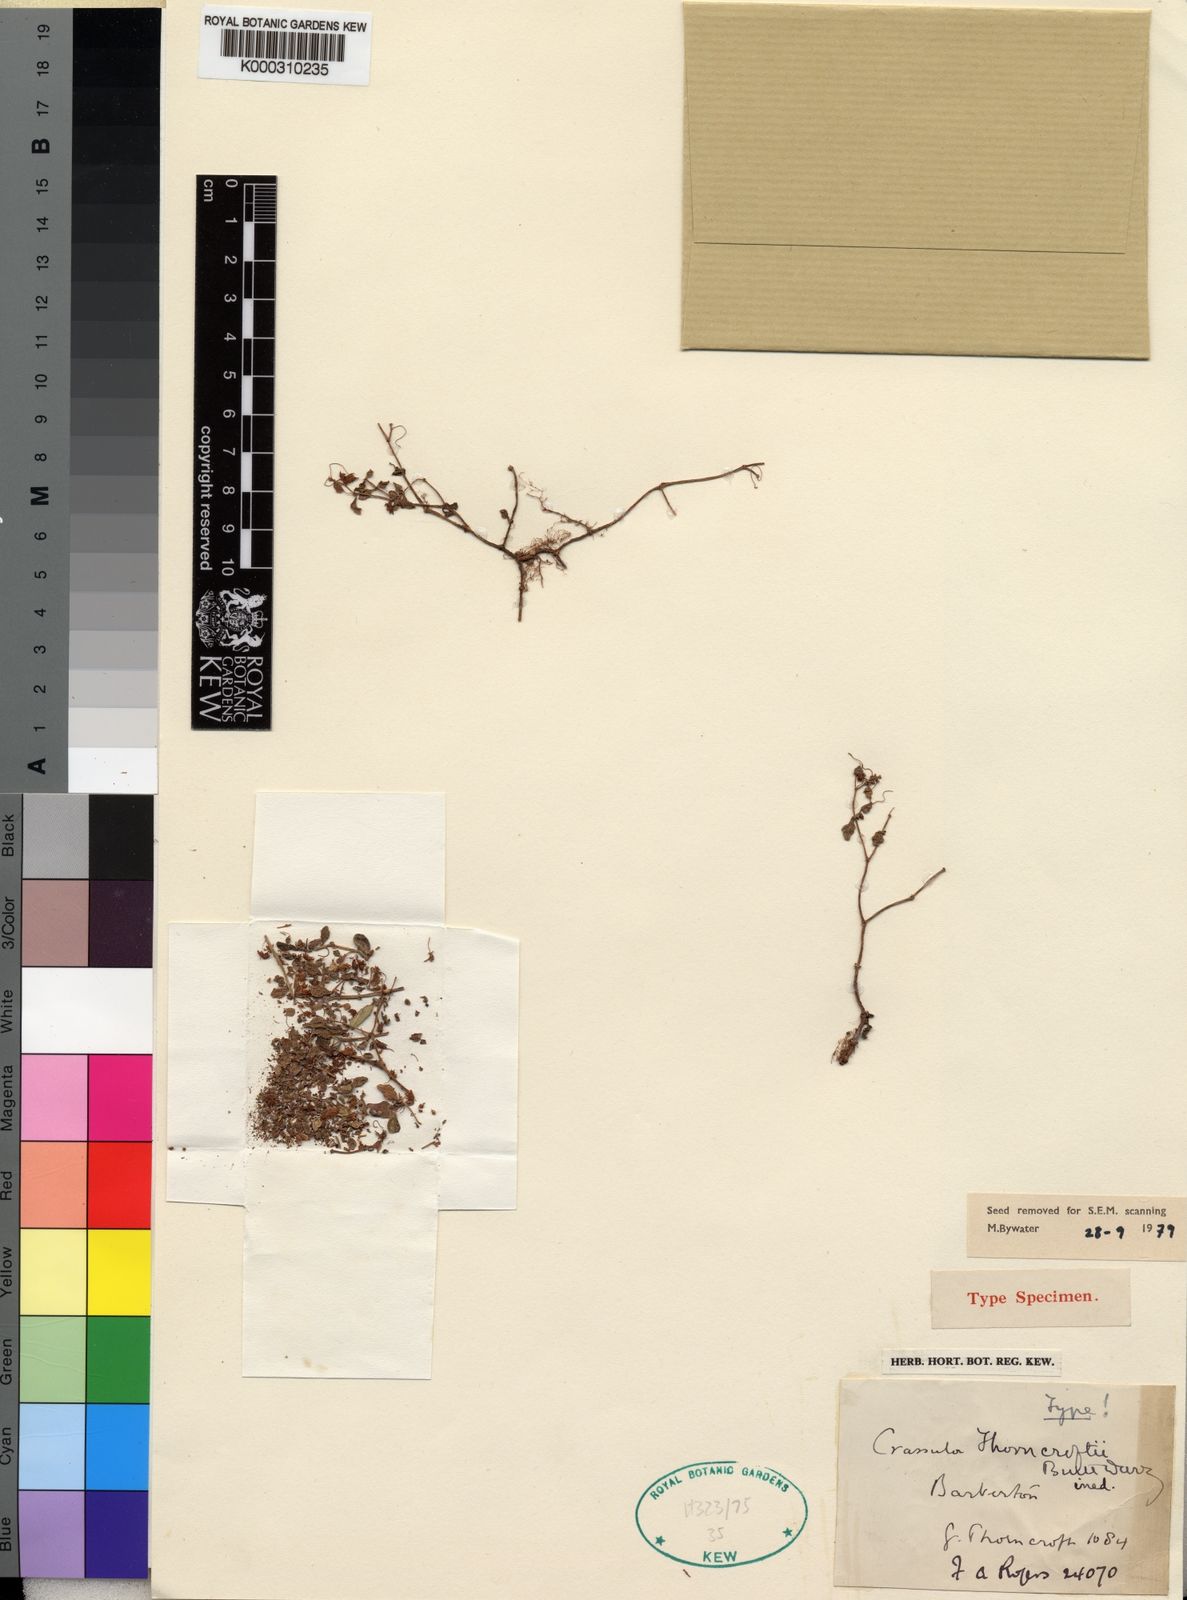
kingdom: Plantae
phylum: Tracheophyta
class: Magnoliopsida
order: Saxifragales
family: Crassulaceae
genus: Crassula
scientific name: Crassula expansa
